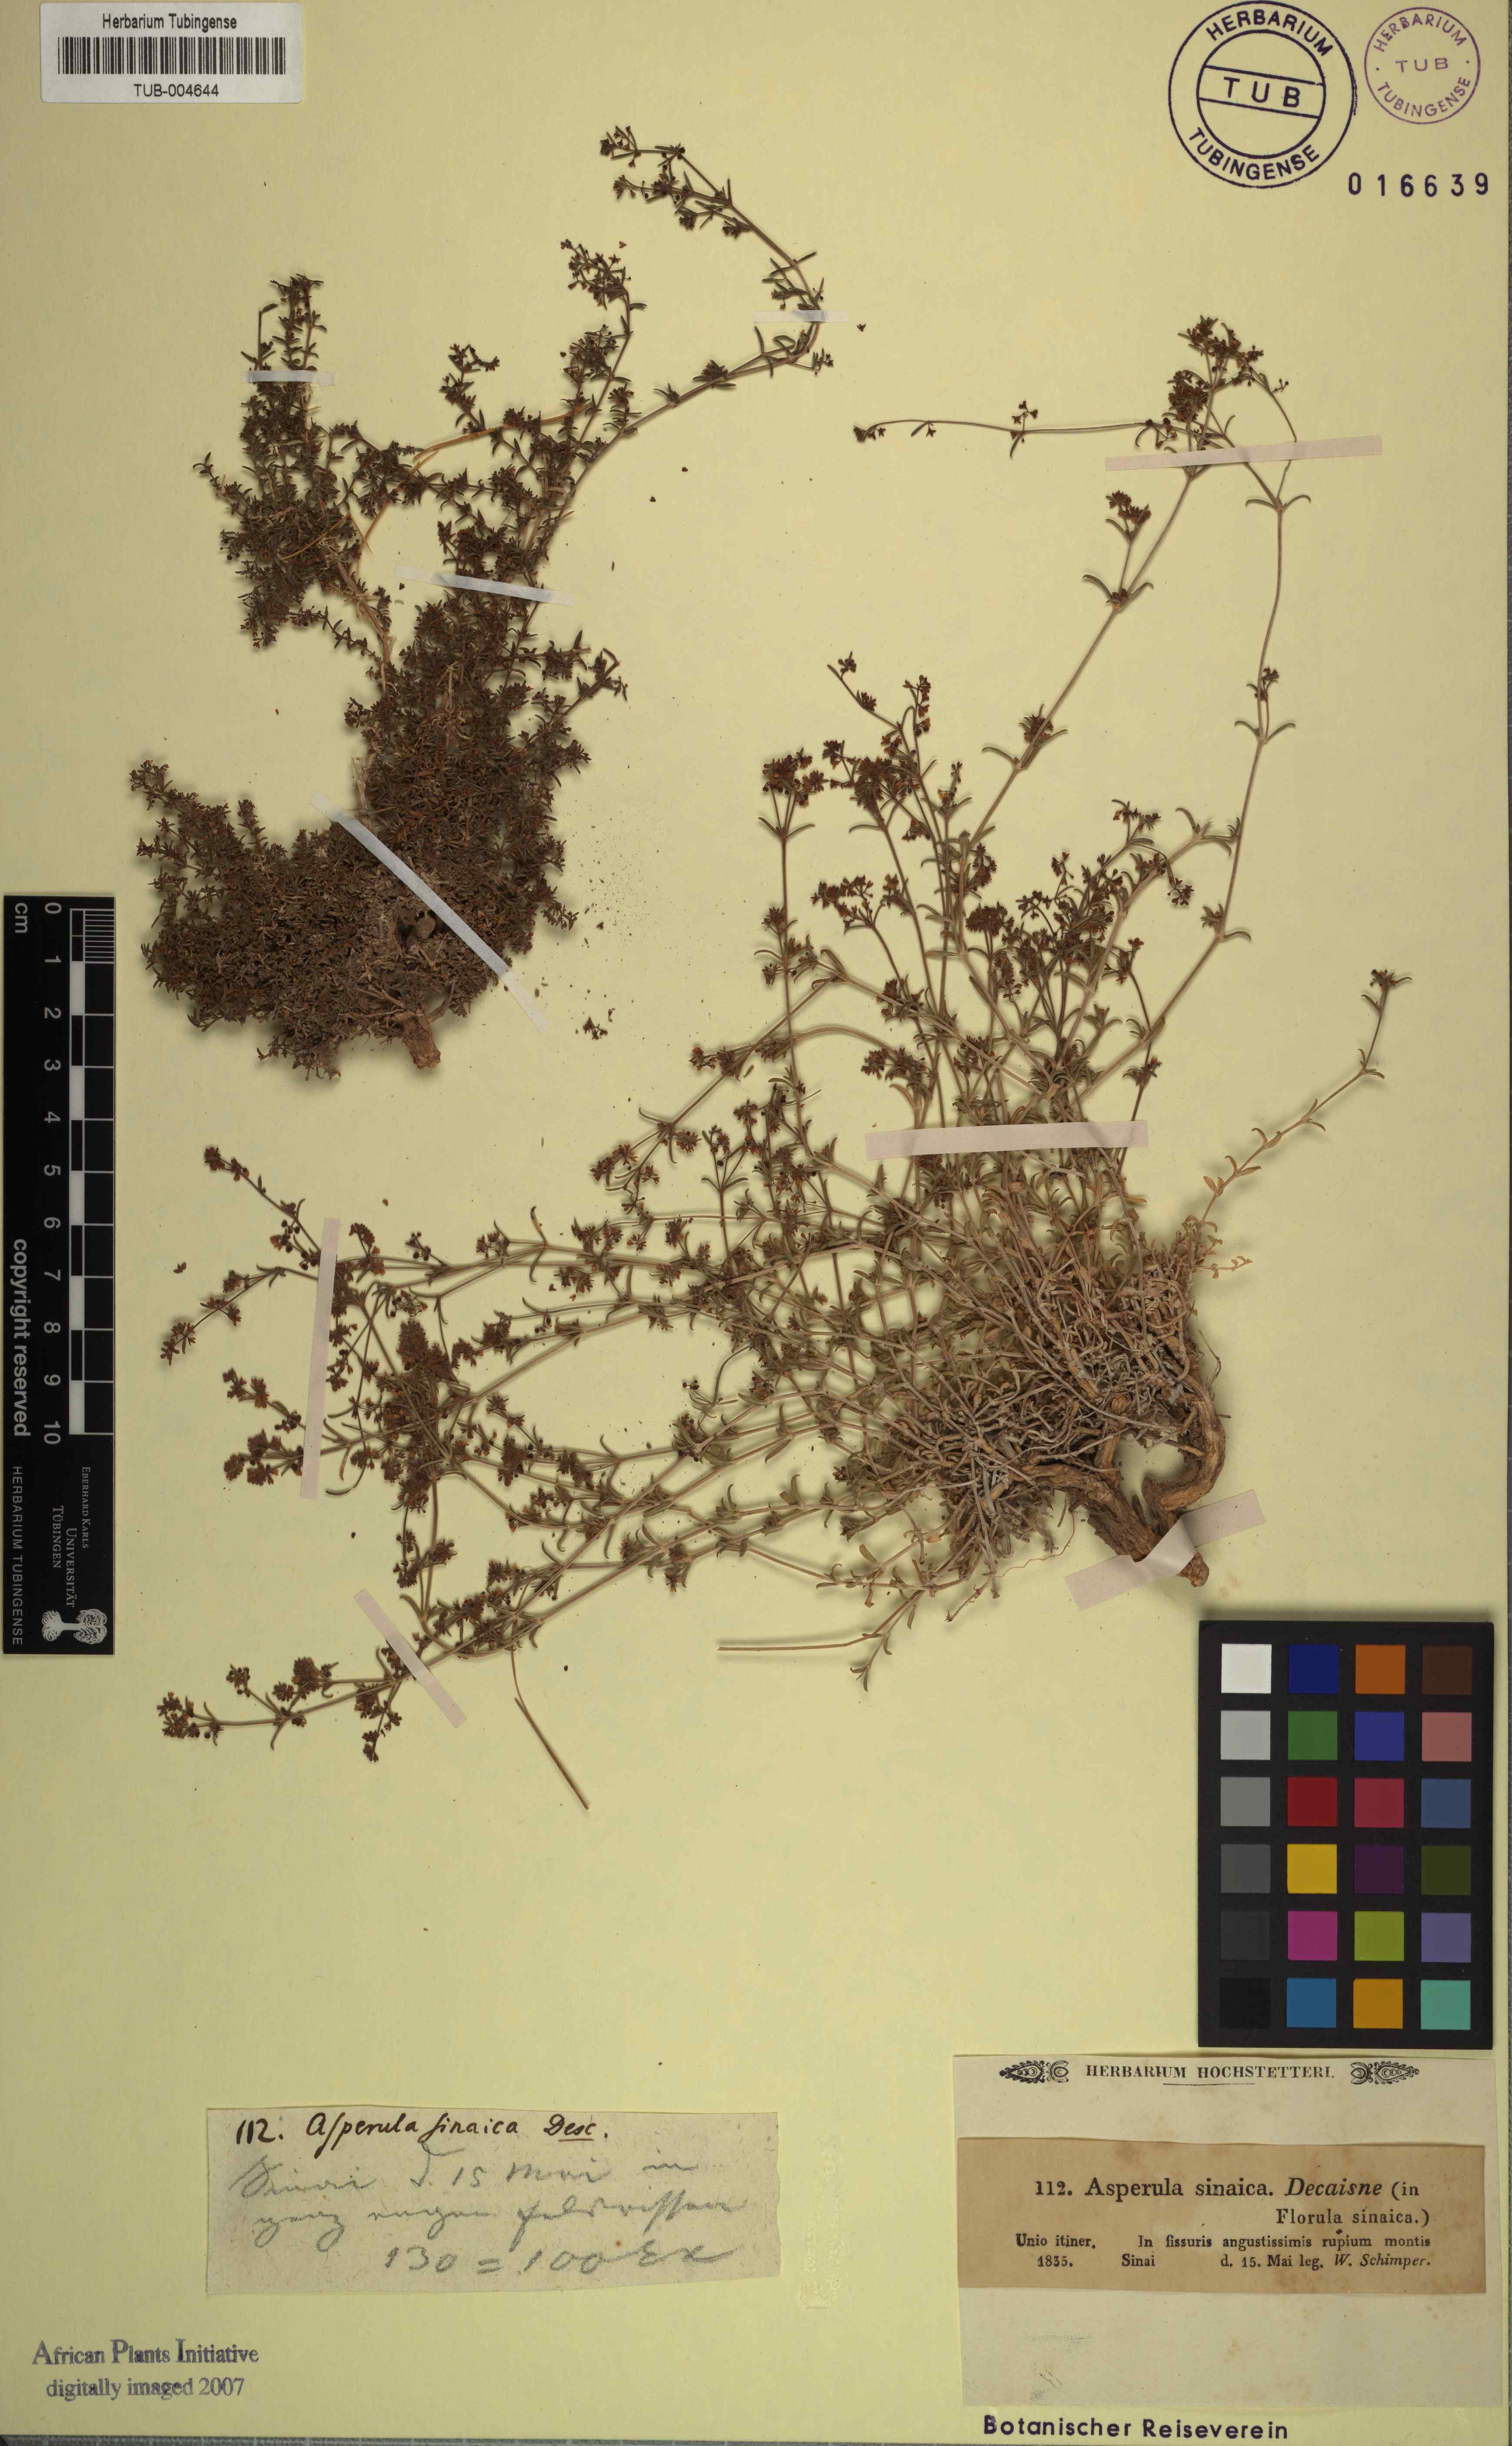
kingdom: Plantae
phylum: Tracheophyta
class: Magnoliopsida
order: Gentianales
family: Rubiaceae
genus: Galium
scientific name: Galium sinaicum
